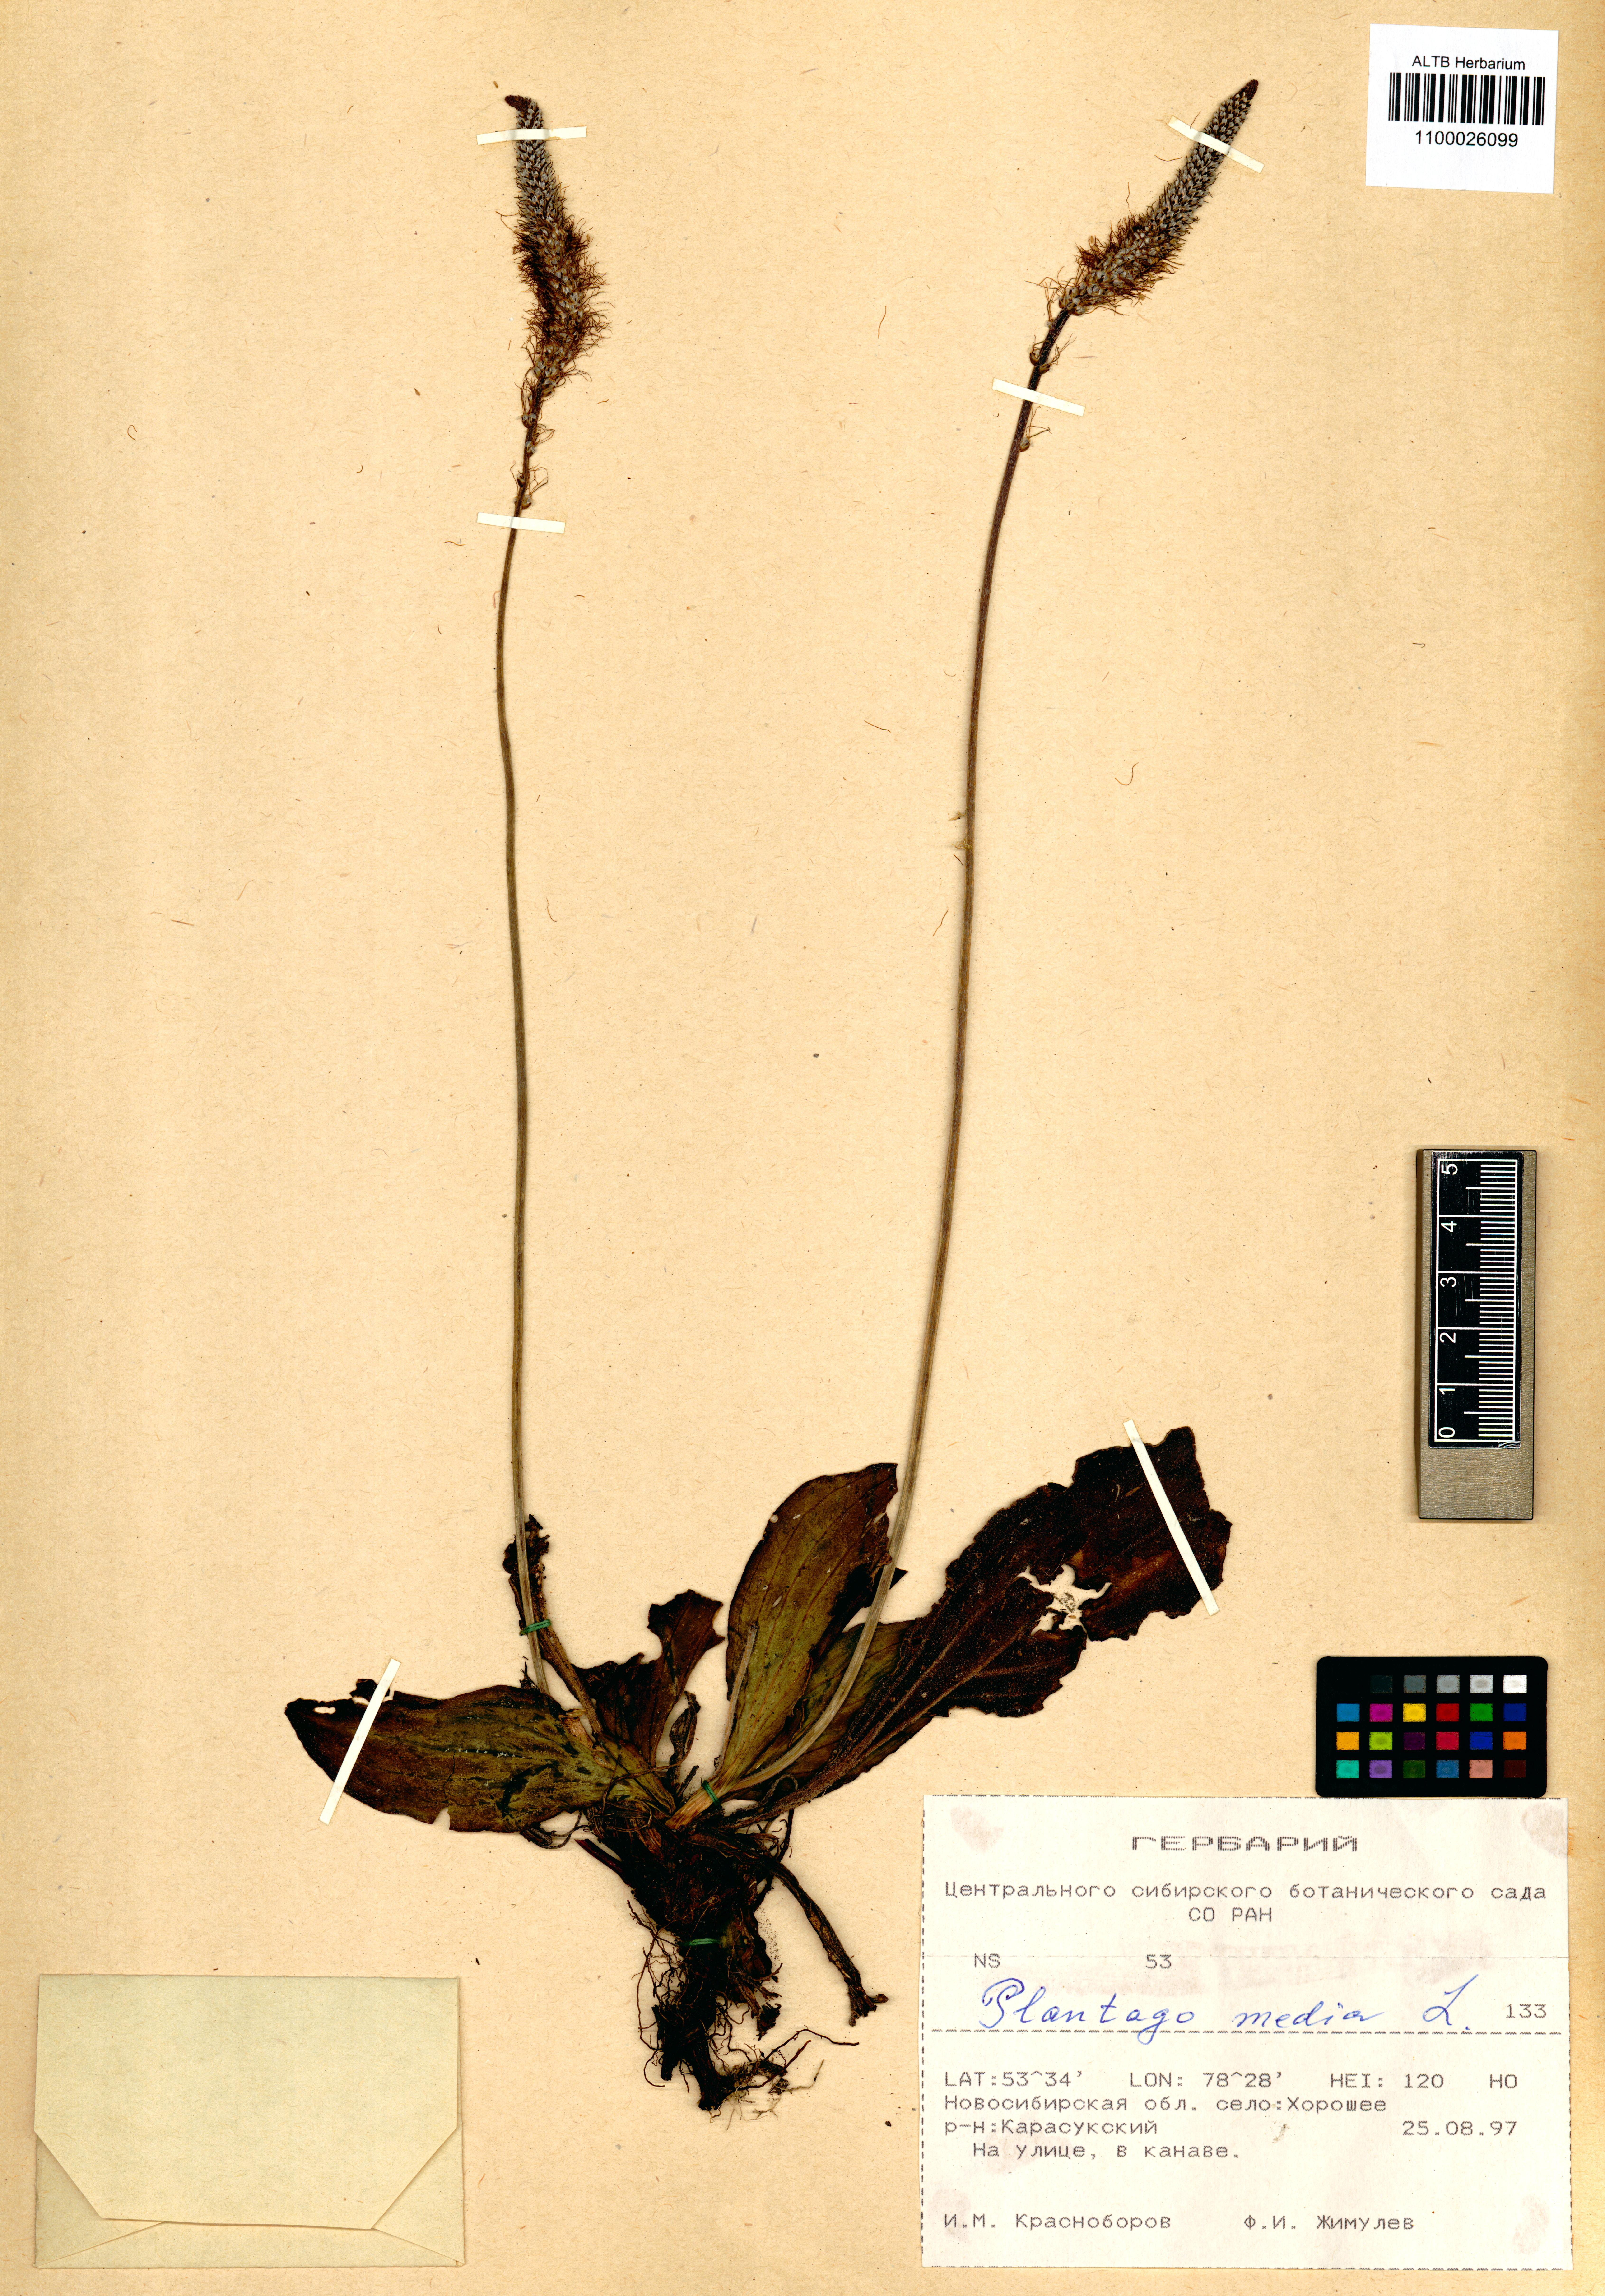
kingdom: Plantae
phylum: Tracheophyta
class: Magnoliopsida
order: Lamiales
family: Plantaginaceae
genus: Plantago
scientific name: Plantago media
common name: Hoary plantain
